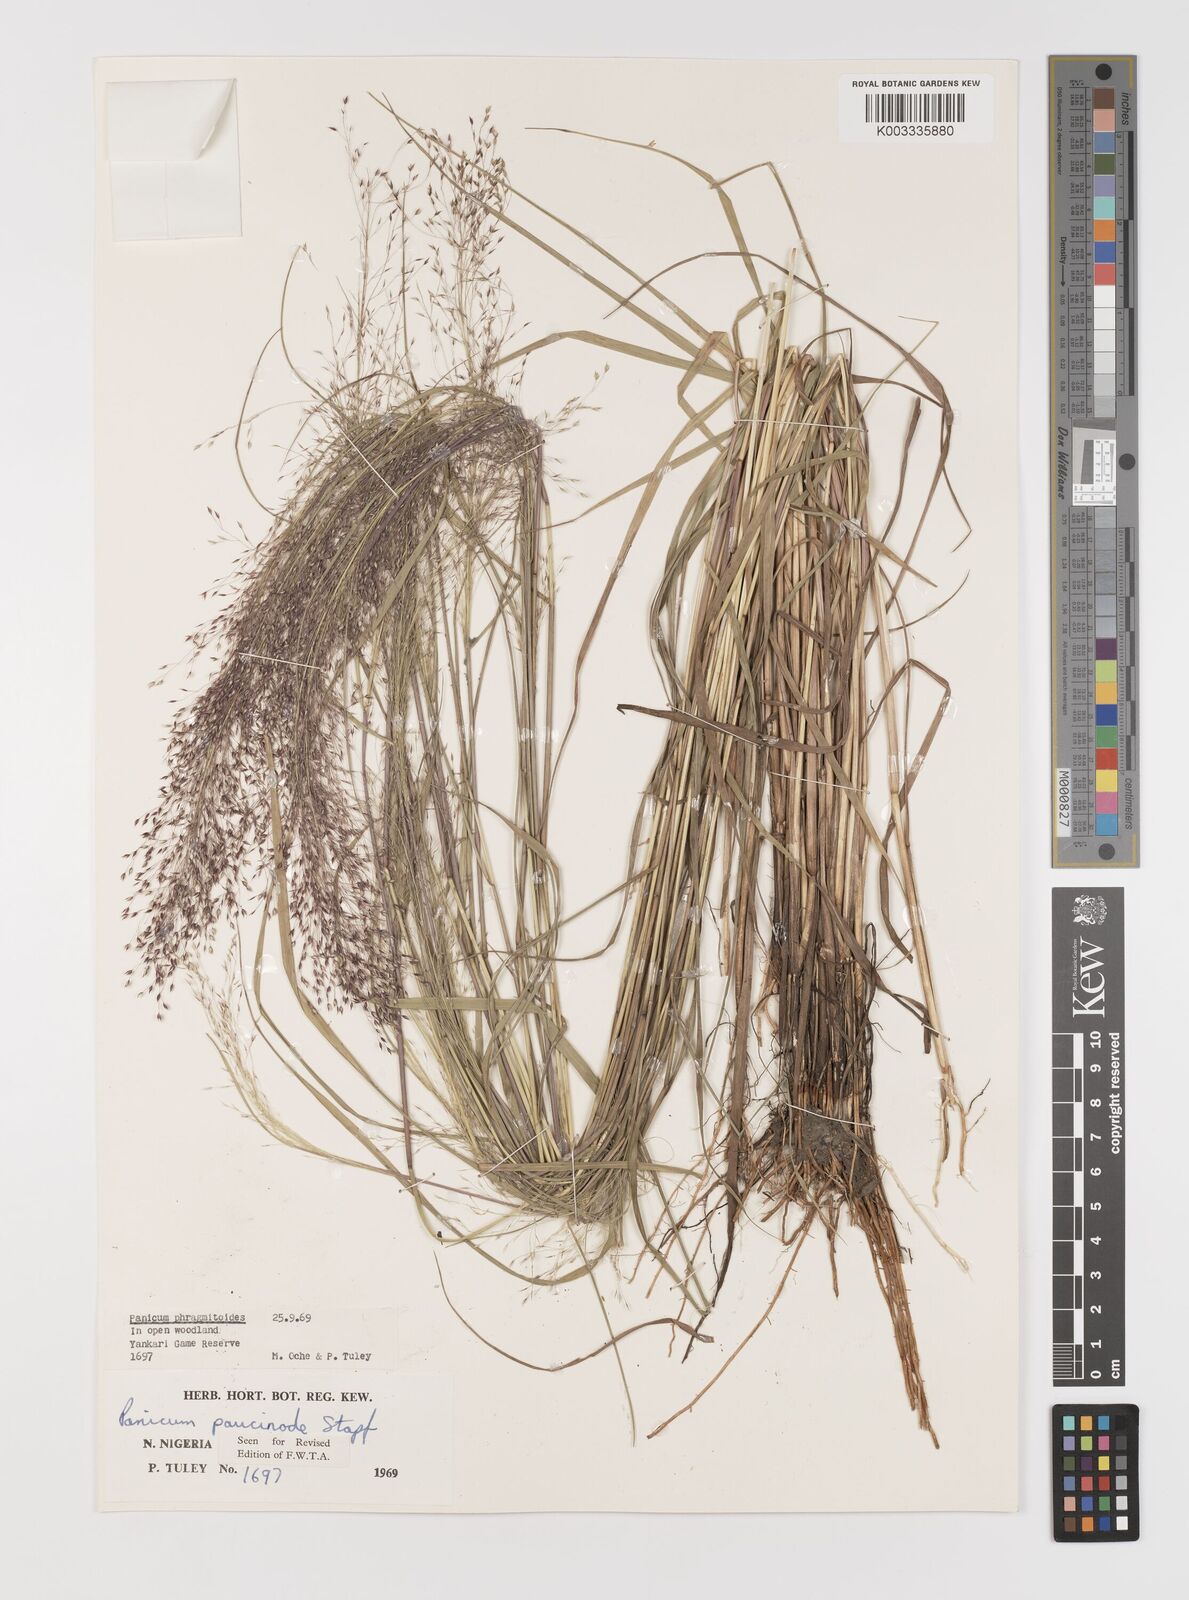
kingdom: Plantae
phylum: Tracheophyta
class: Liliopsida
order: Poales
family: Poaceae
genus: Panicum
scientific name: Panicum paucinode
